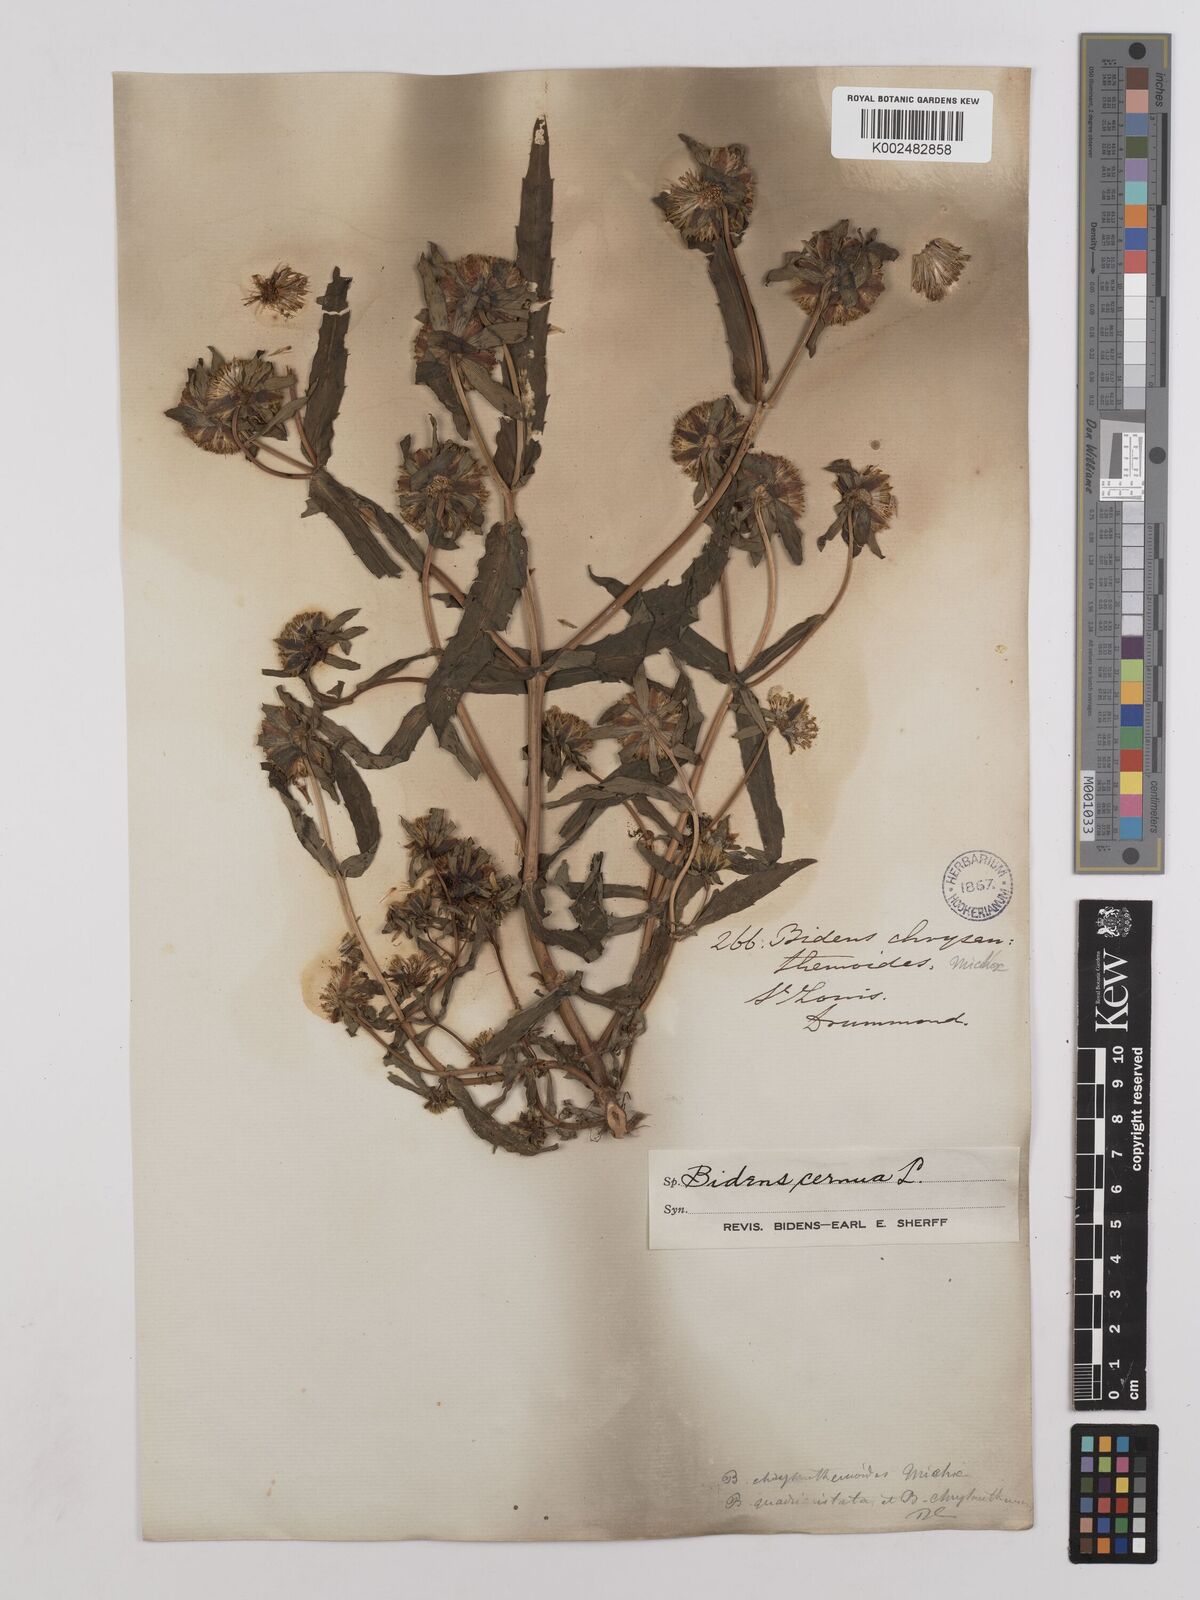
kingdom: Plantae
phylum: Tracheophyta
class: Magnoliopsida
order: Asterales
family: Asteraceae
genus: Bidens
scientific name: Bidens
